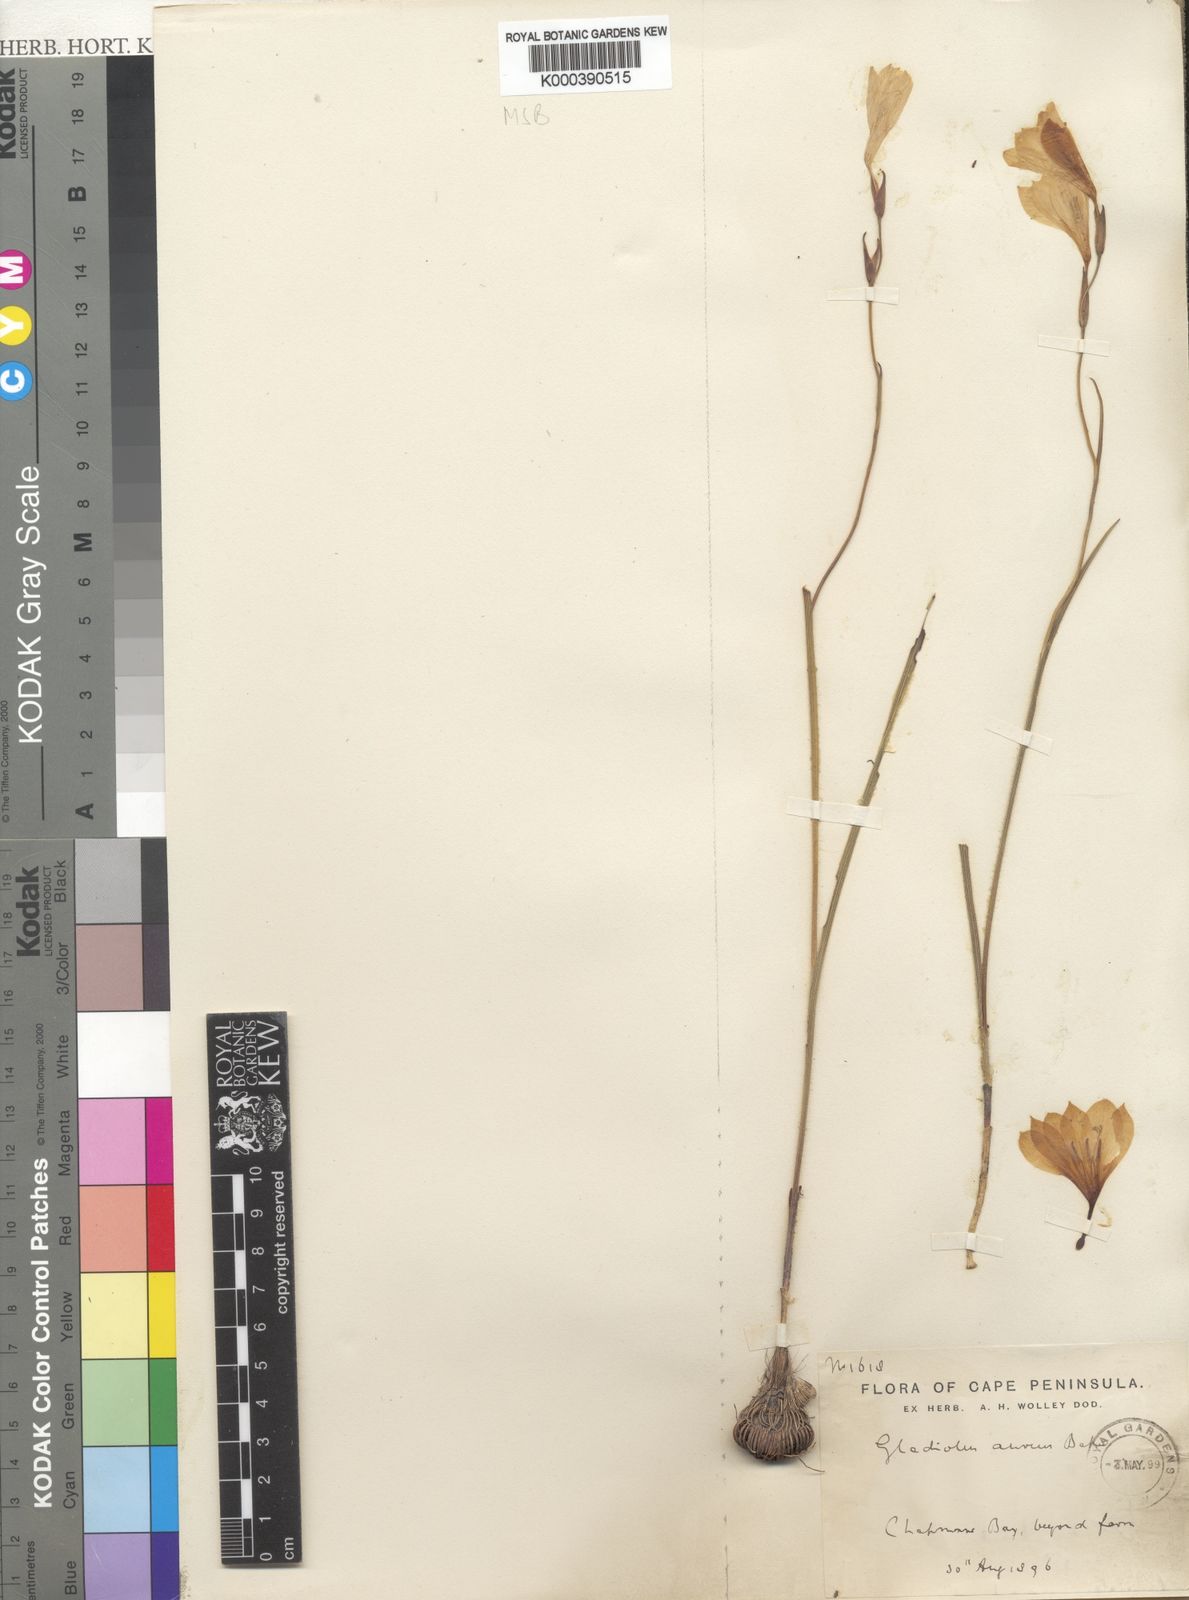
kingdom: Plantae
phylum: Tracheophyta
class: Liliopsida
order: Asparagales
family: Iridaceae
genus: Gladiolus
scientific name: Gladiolus aureus
